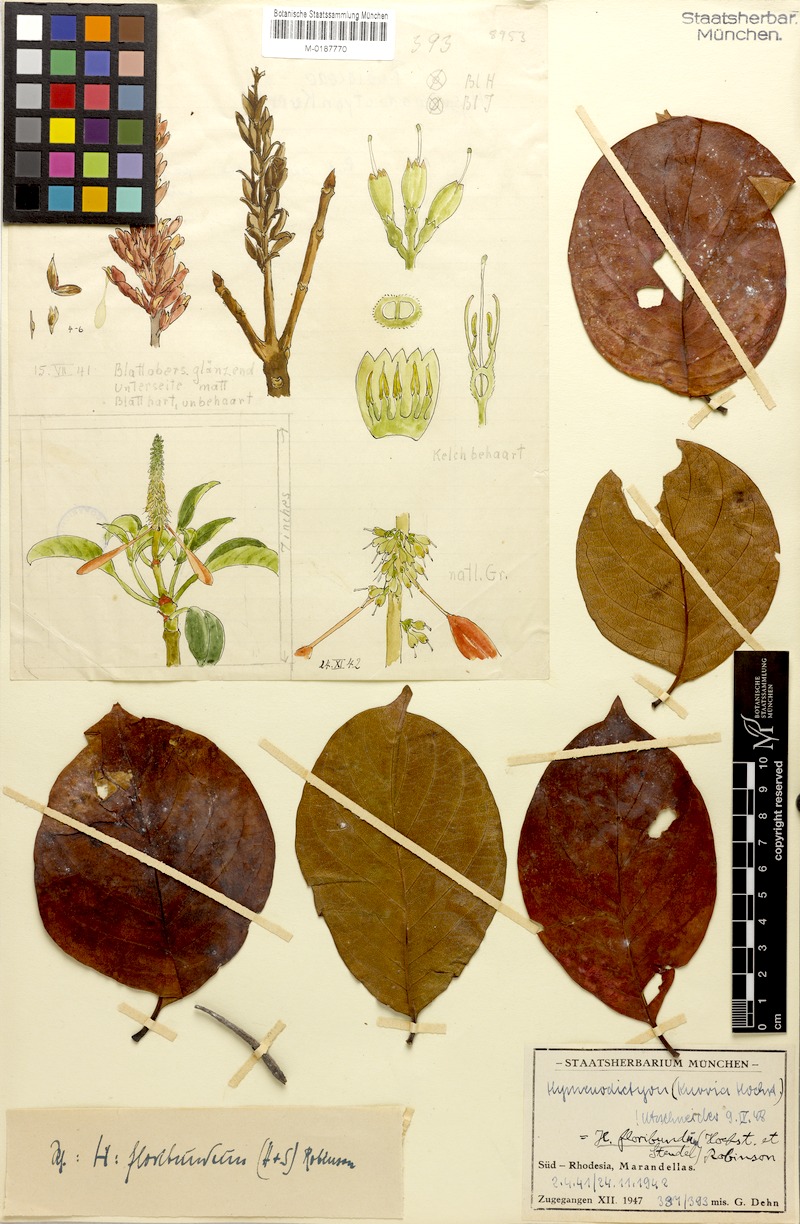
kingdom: Plantae
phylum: Tracheophyta
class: Magnoliopsida
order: Gentianales
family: Rubiaceae
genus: Hymenodictyon
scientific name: Hymenodictyon floribundum
